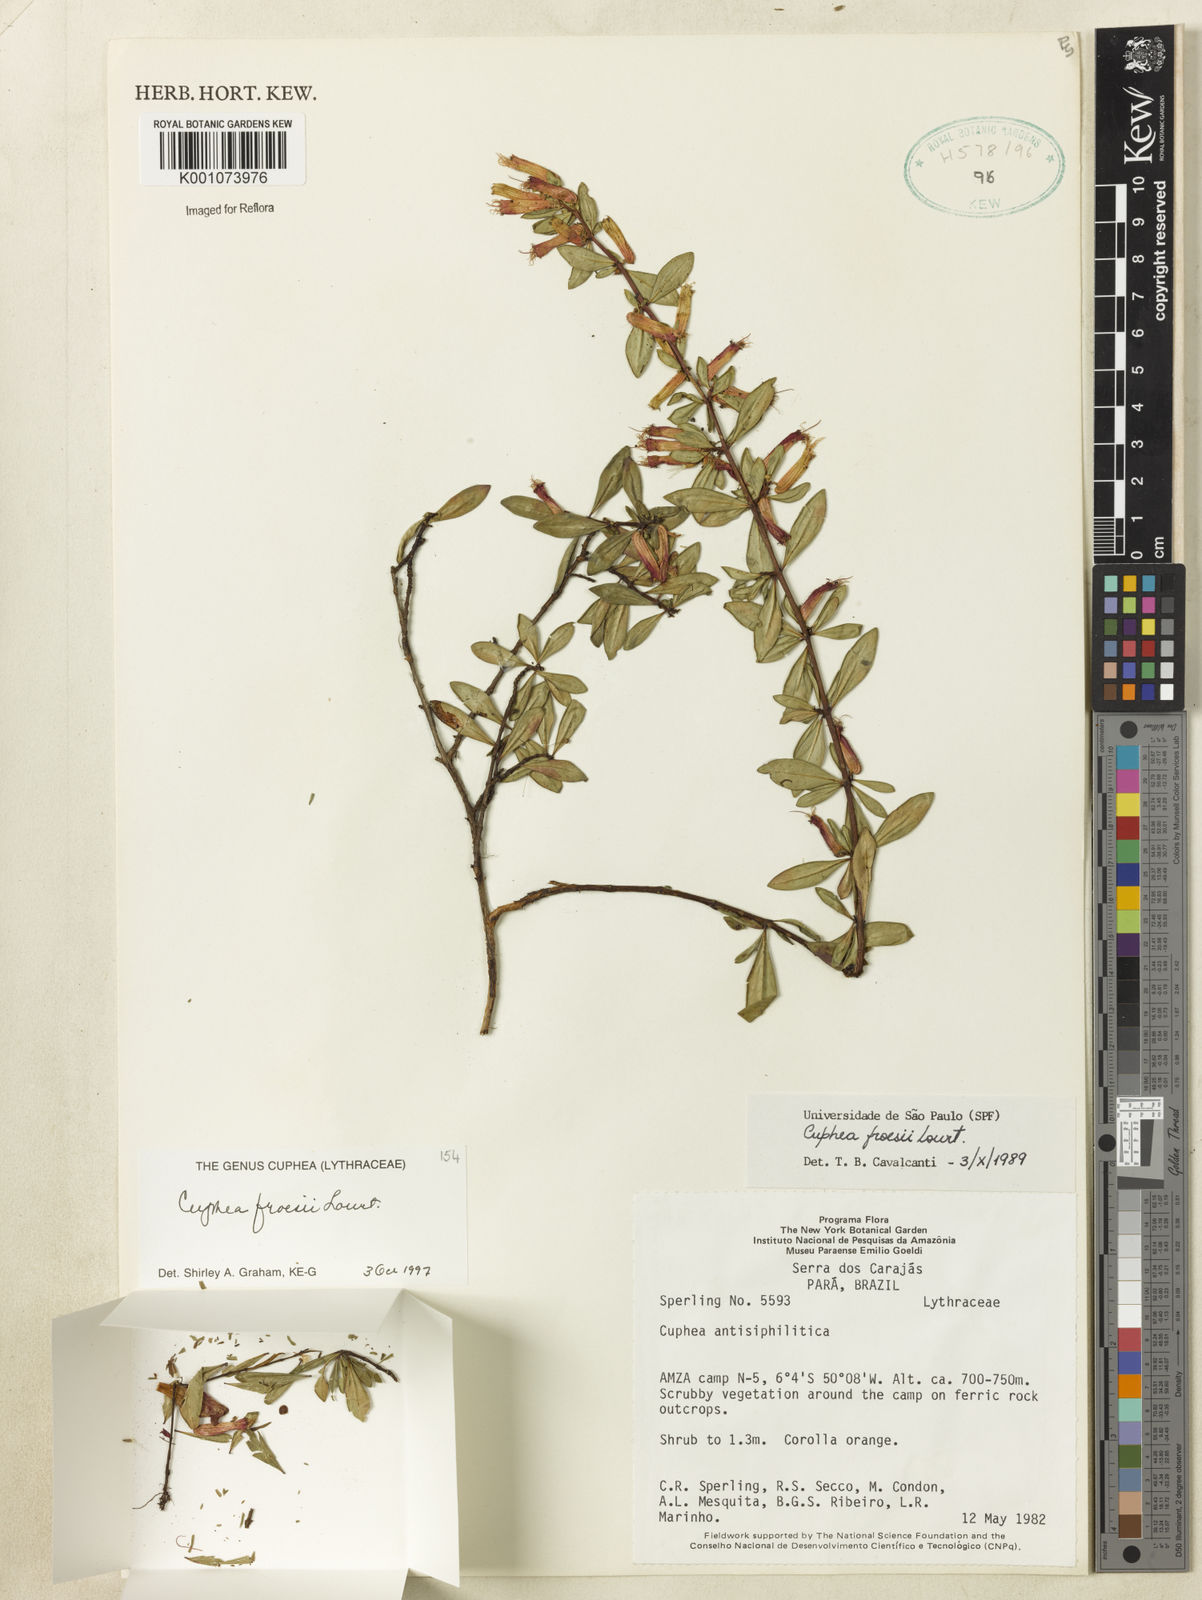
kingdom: Plantae
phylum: Tracheophyta
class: Magnoliopsida
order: Myrtales
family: Lythraceae
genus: Cuphea
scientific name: Cuphea froesii
